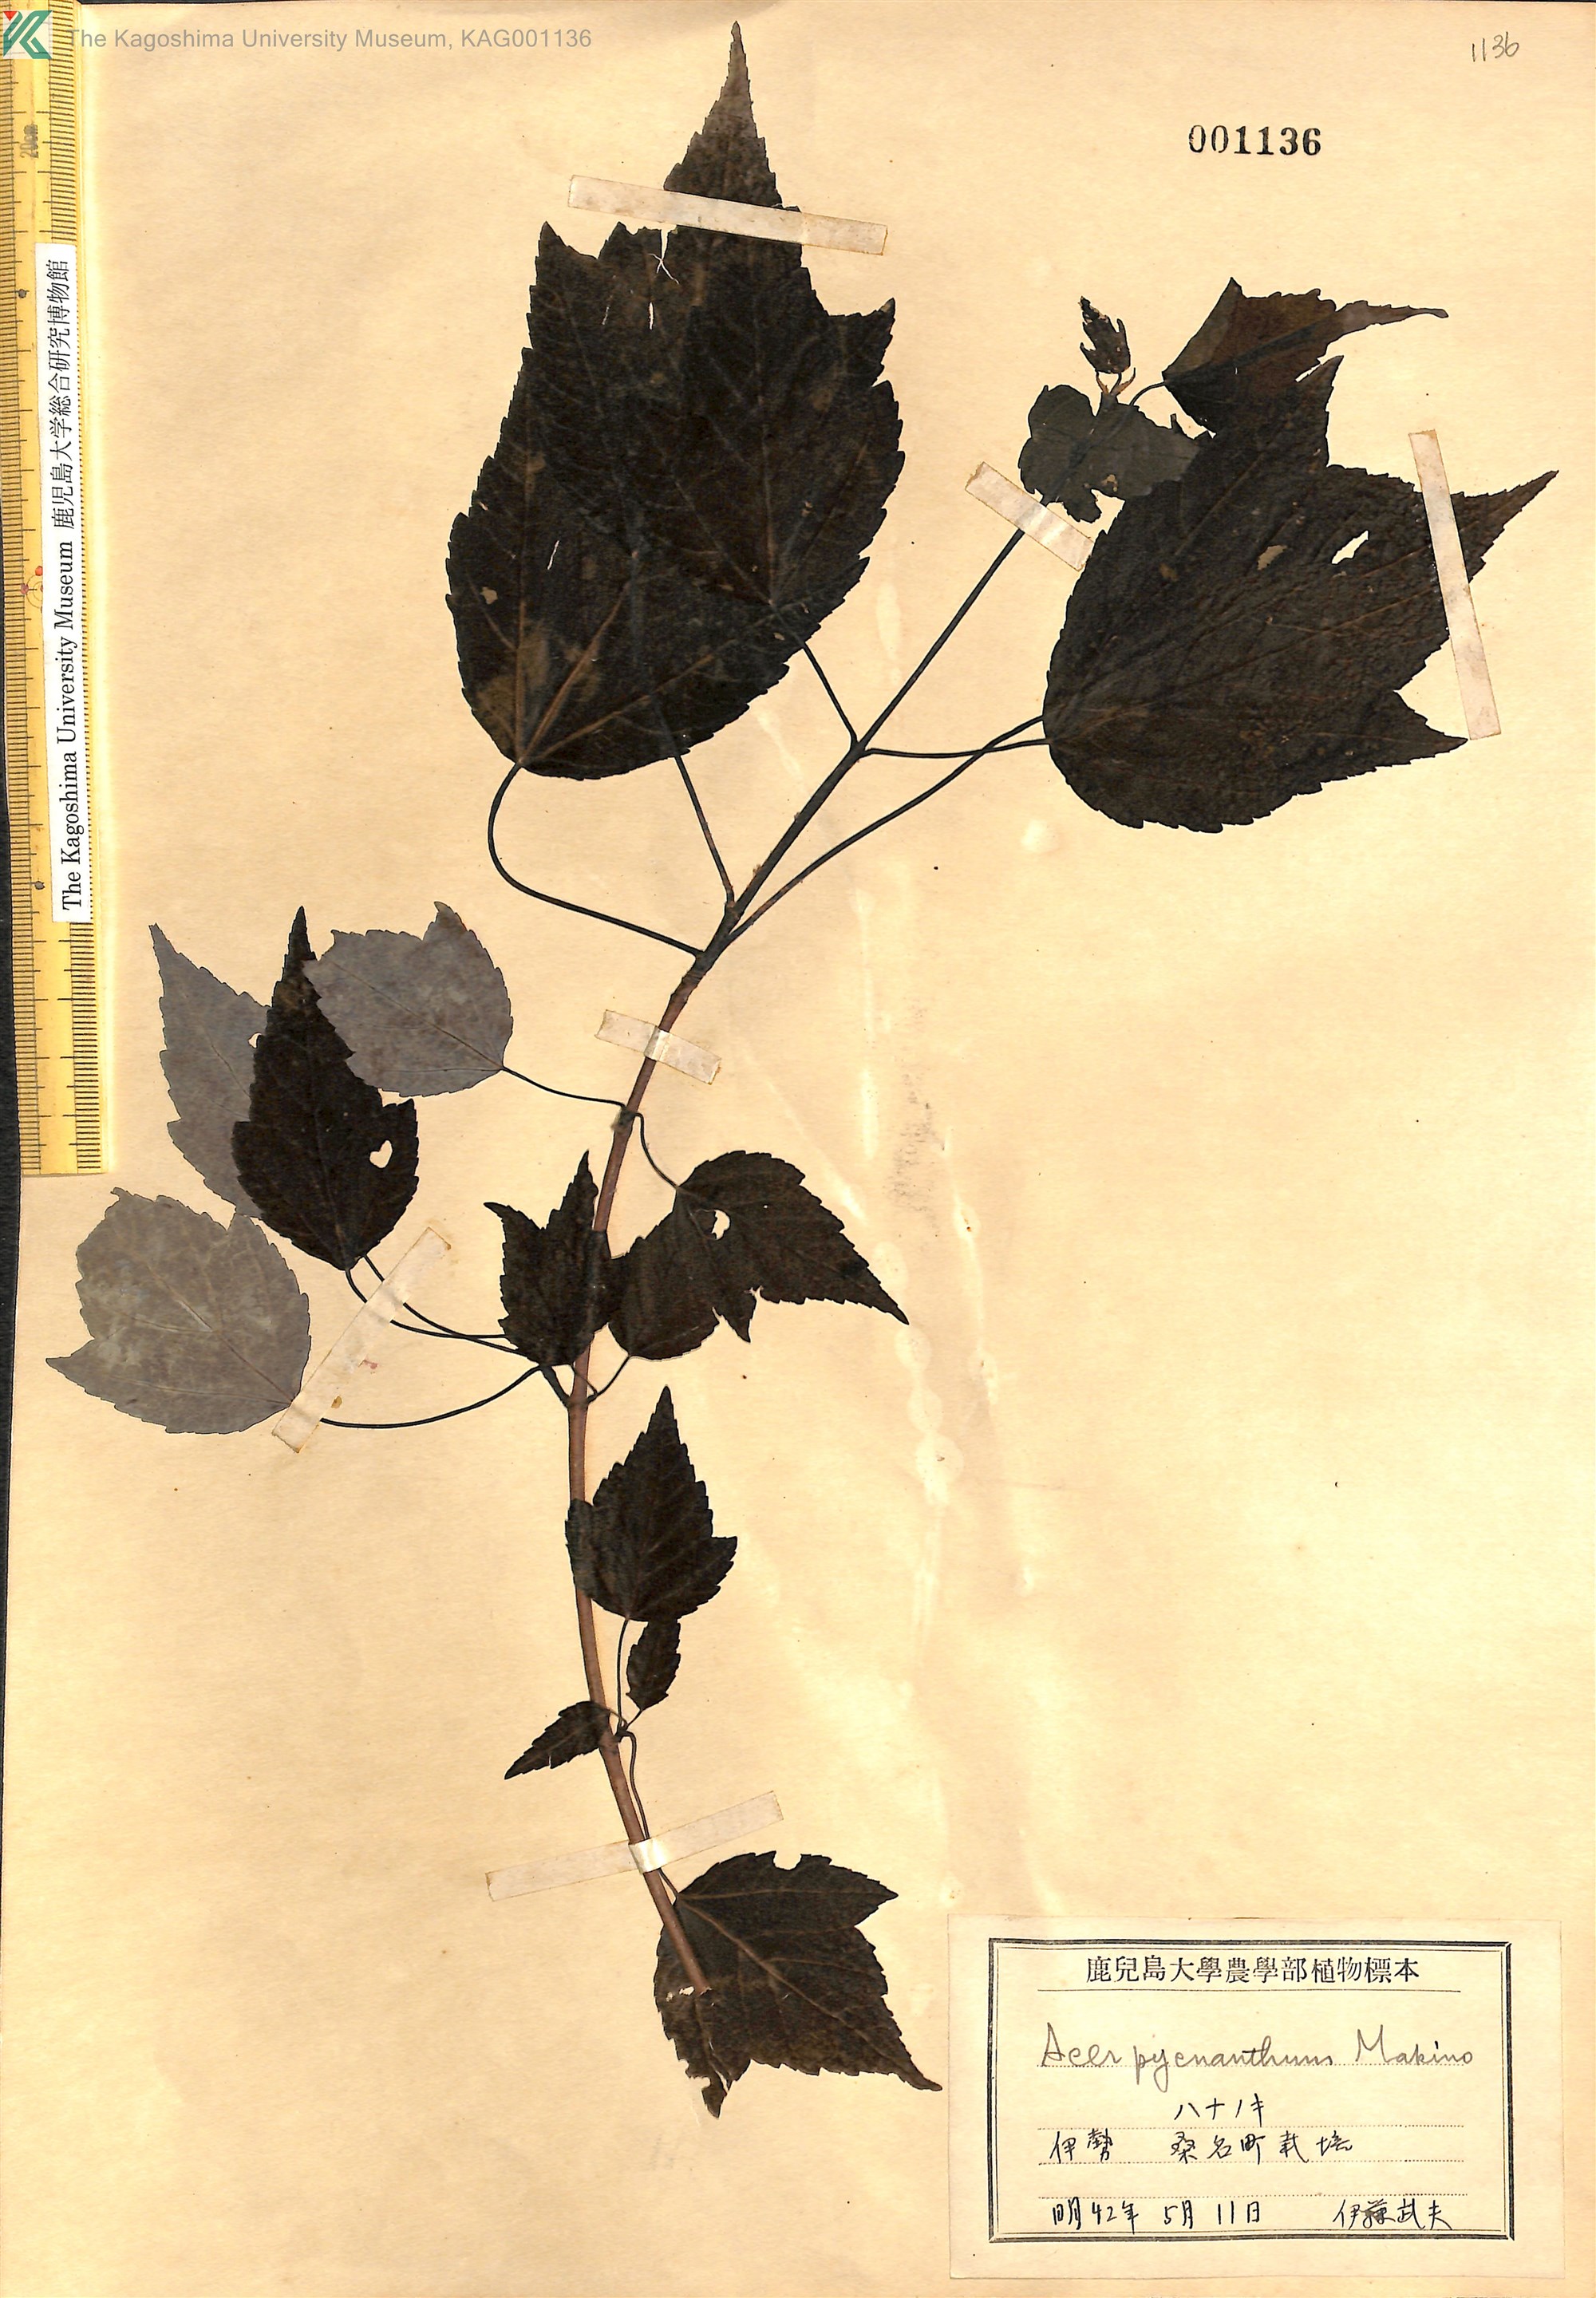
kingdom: Plantae
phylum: Tracheophyta
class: Magnoliopsida
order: Sapindales
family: Sapindaceae
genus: Acer
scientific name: Acer pycnanthum
